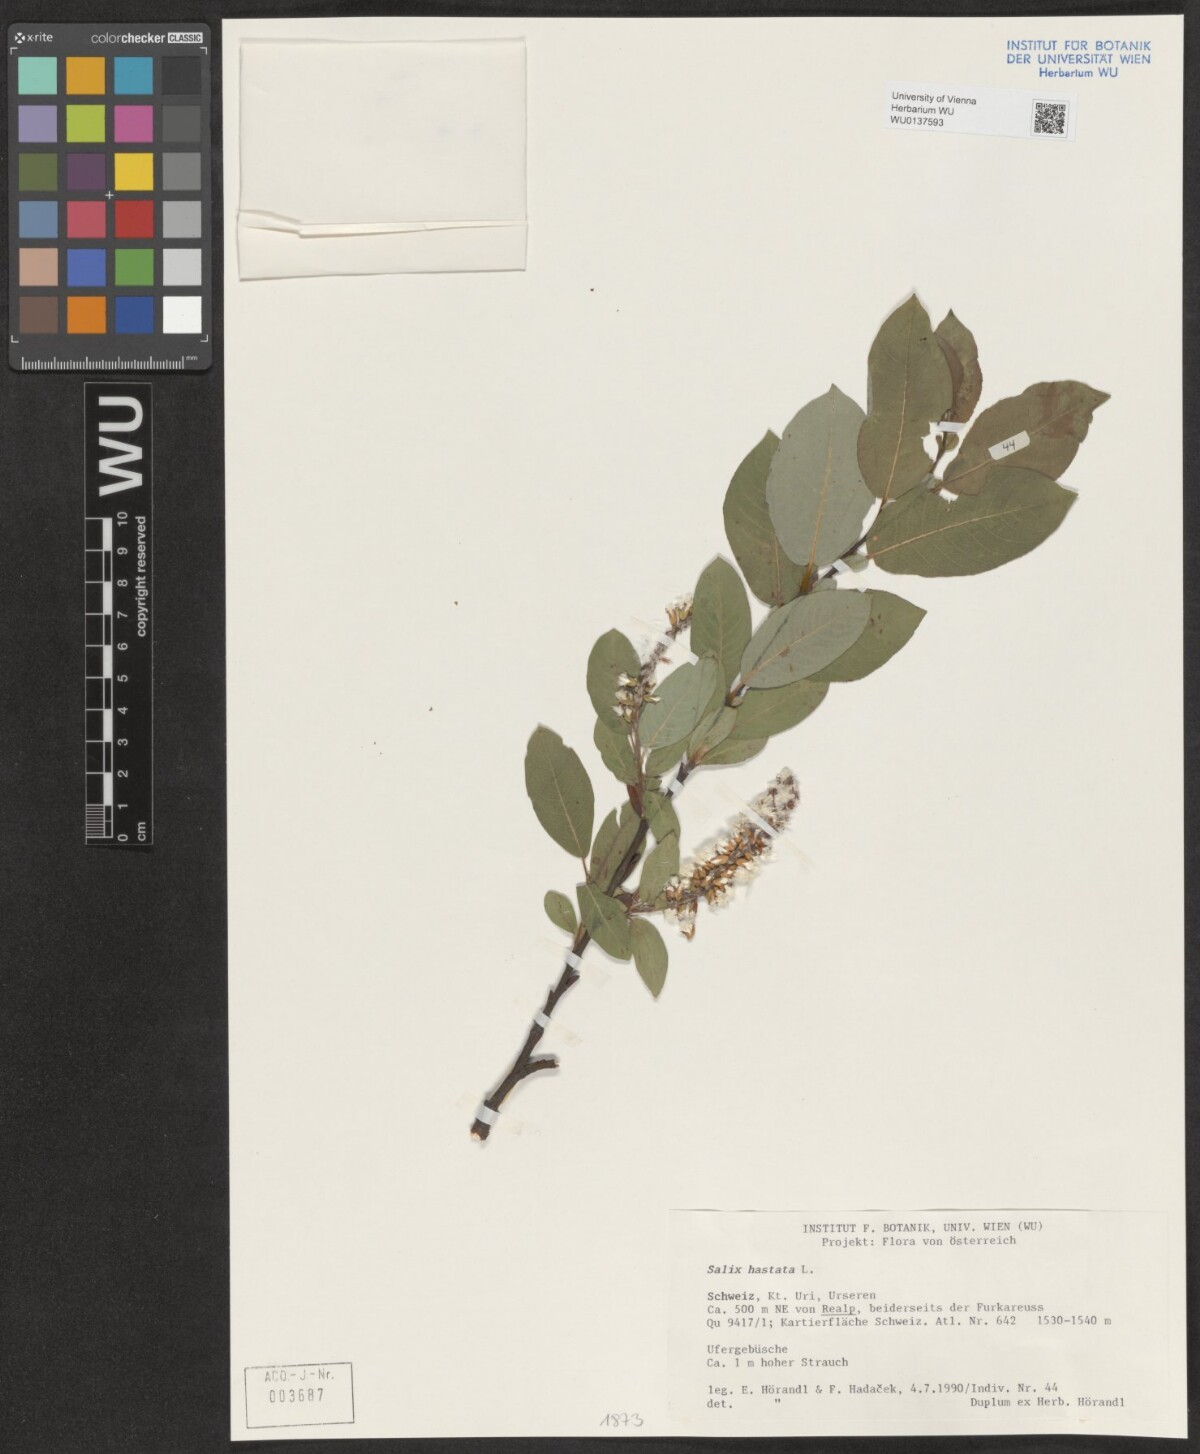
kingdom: Plantae
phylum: Tracheophyta
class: Magnoliopsida
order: Malpighiales
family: Salicaceae
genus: Salix
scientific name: Salix hastata
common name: Halberd willow
